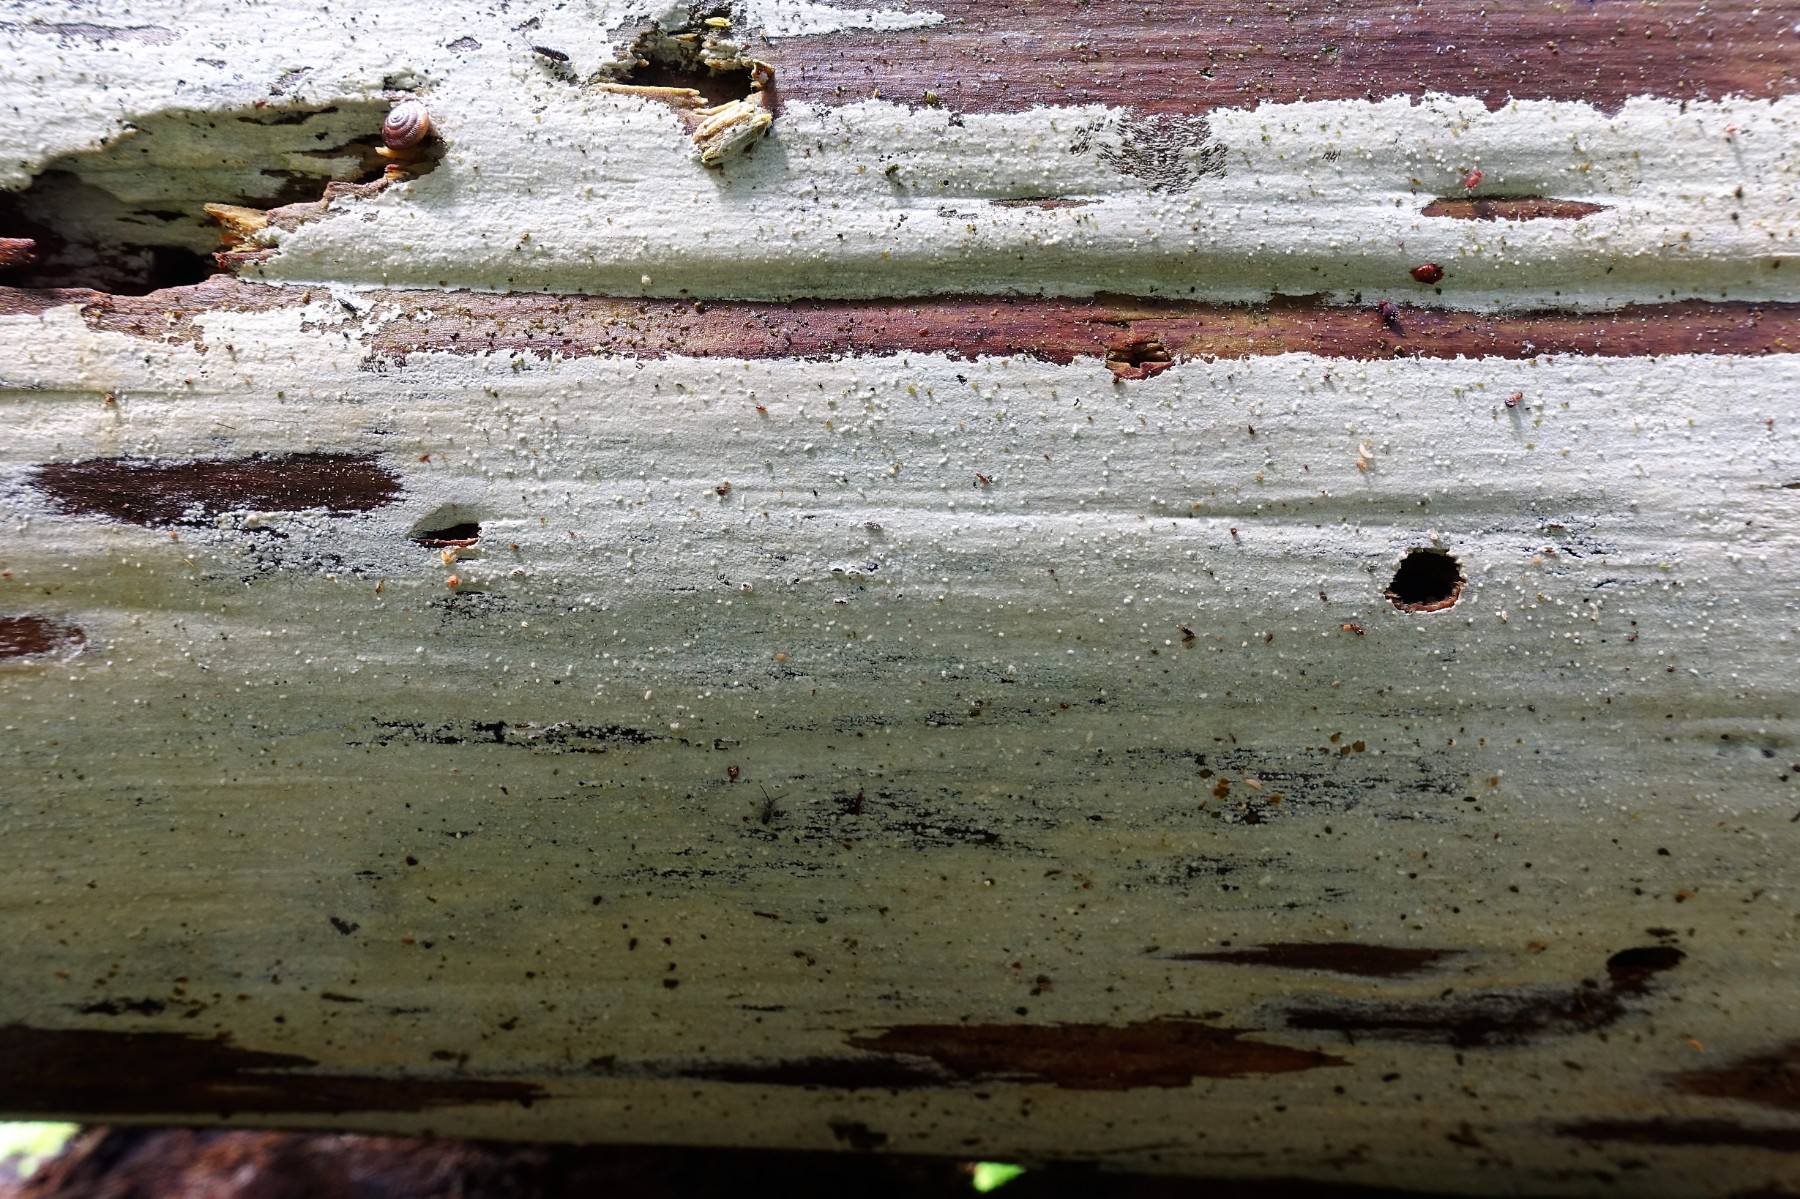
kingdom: Fungi
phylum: Basidiomycota
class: Agaricomycetes
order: Hymenochaetales
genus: Kurtia
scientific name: Kurtia argillacea
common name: Kurts kalkskind
